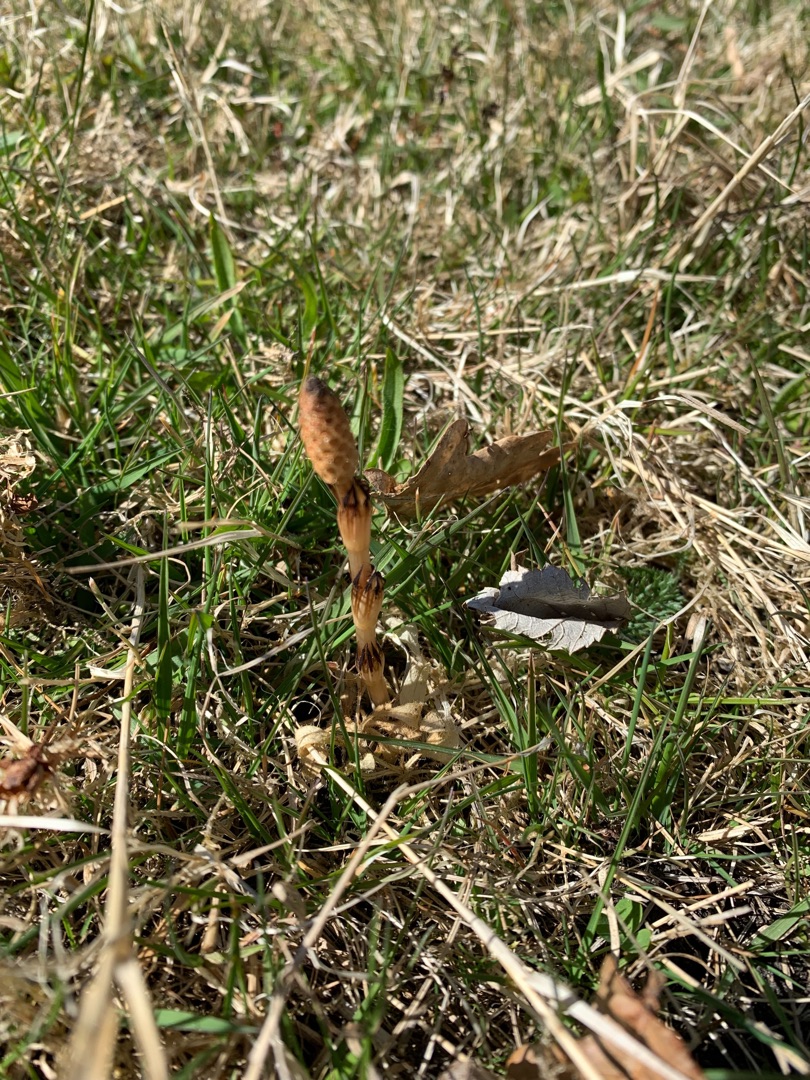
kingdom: Plantae
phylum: Tracheophyta
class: Polypodiopsida
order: Equisetales
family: Equisetaceae
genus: Equisetum
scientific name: Equisetum arvense
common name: Ager-padderok
